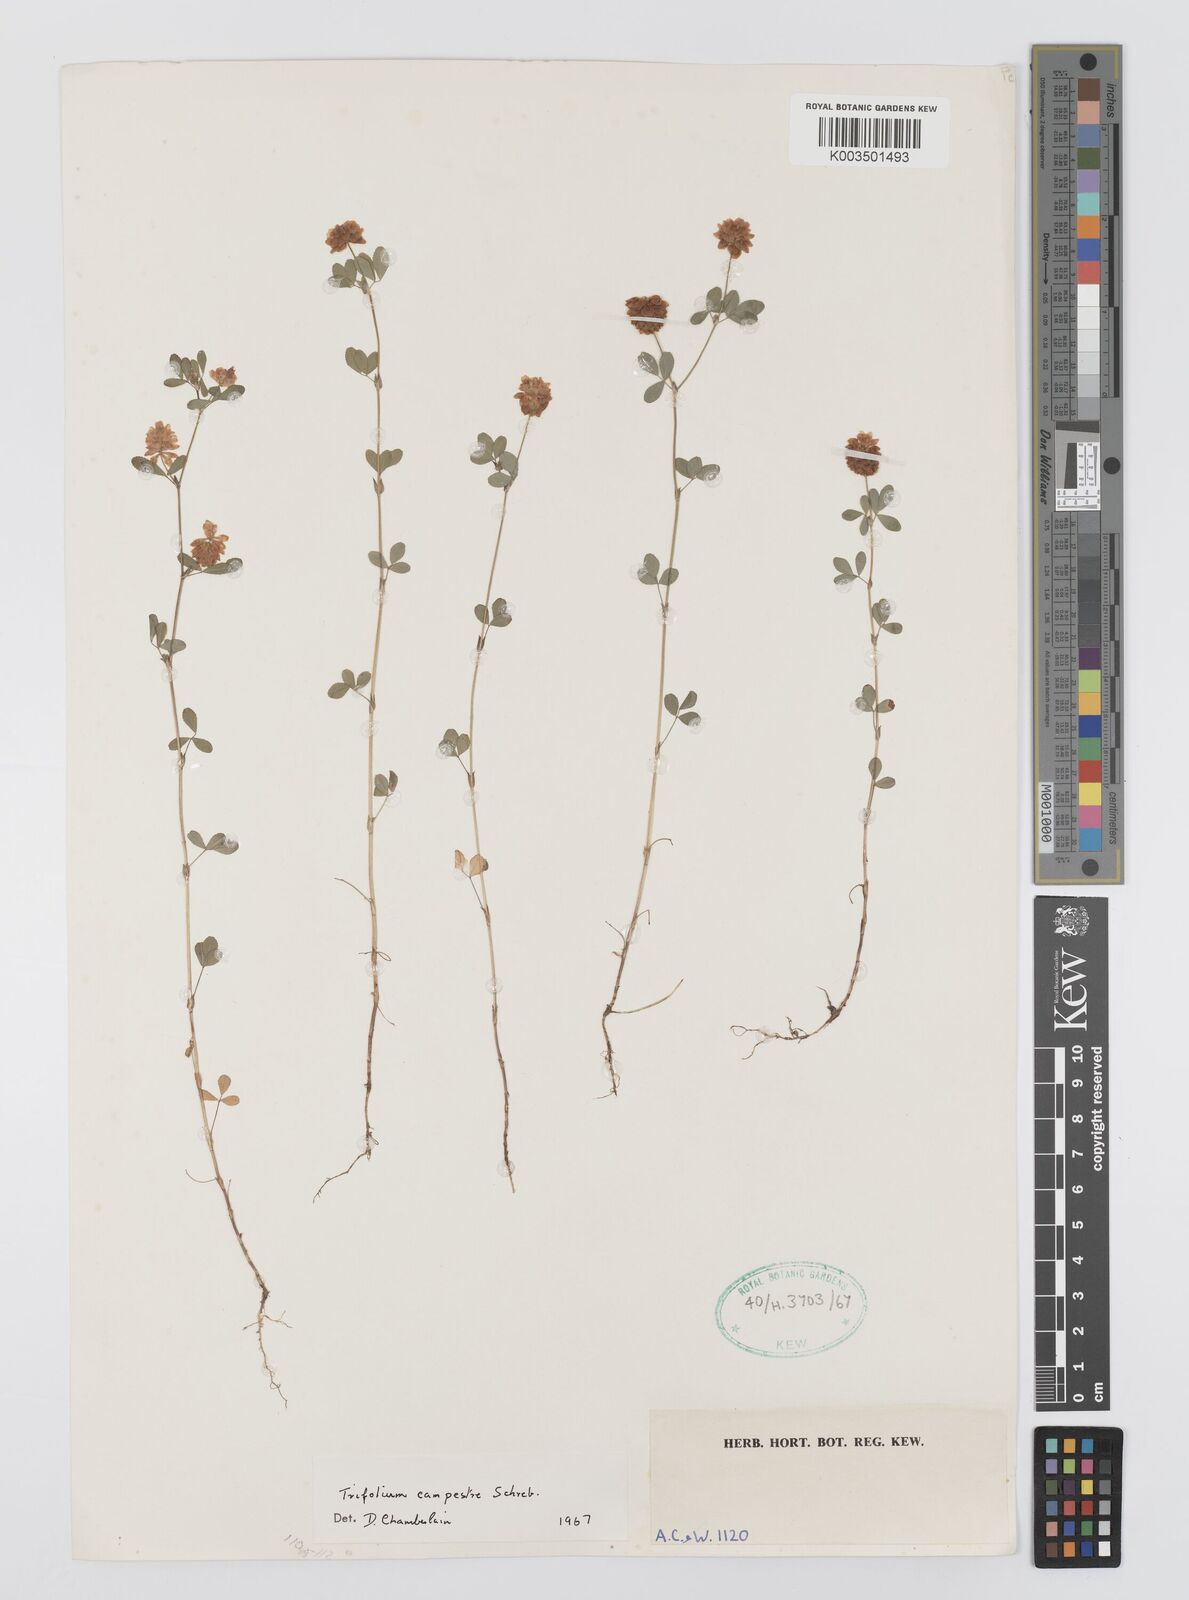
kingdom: Plantae
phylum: Tracheophyta
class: Magnoliopsida
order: Fabales
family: Fabaceae
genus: Trifolium
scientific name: Trifolium campestre
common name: Field clover
